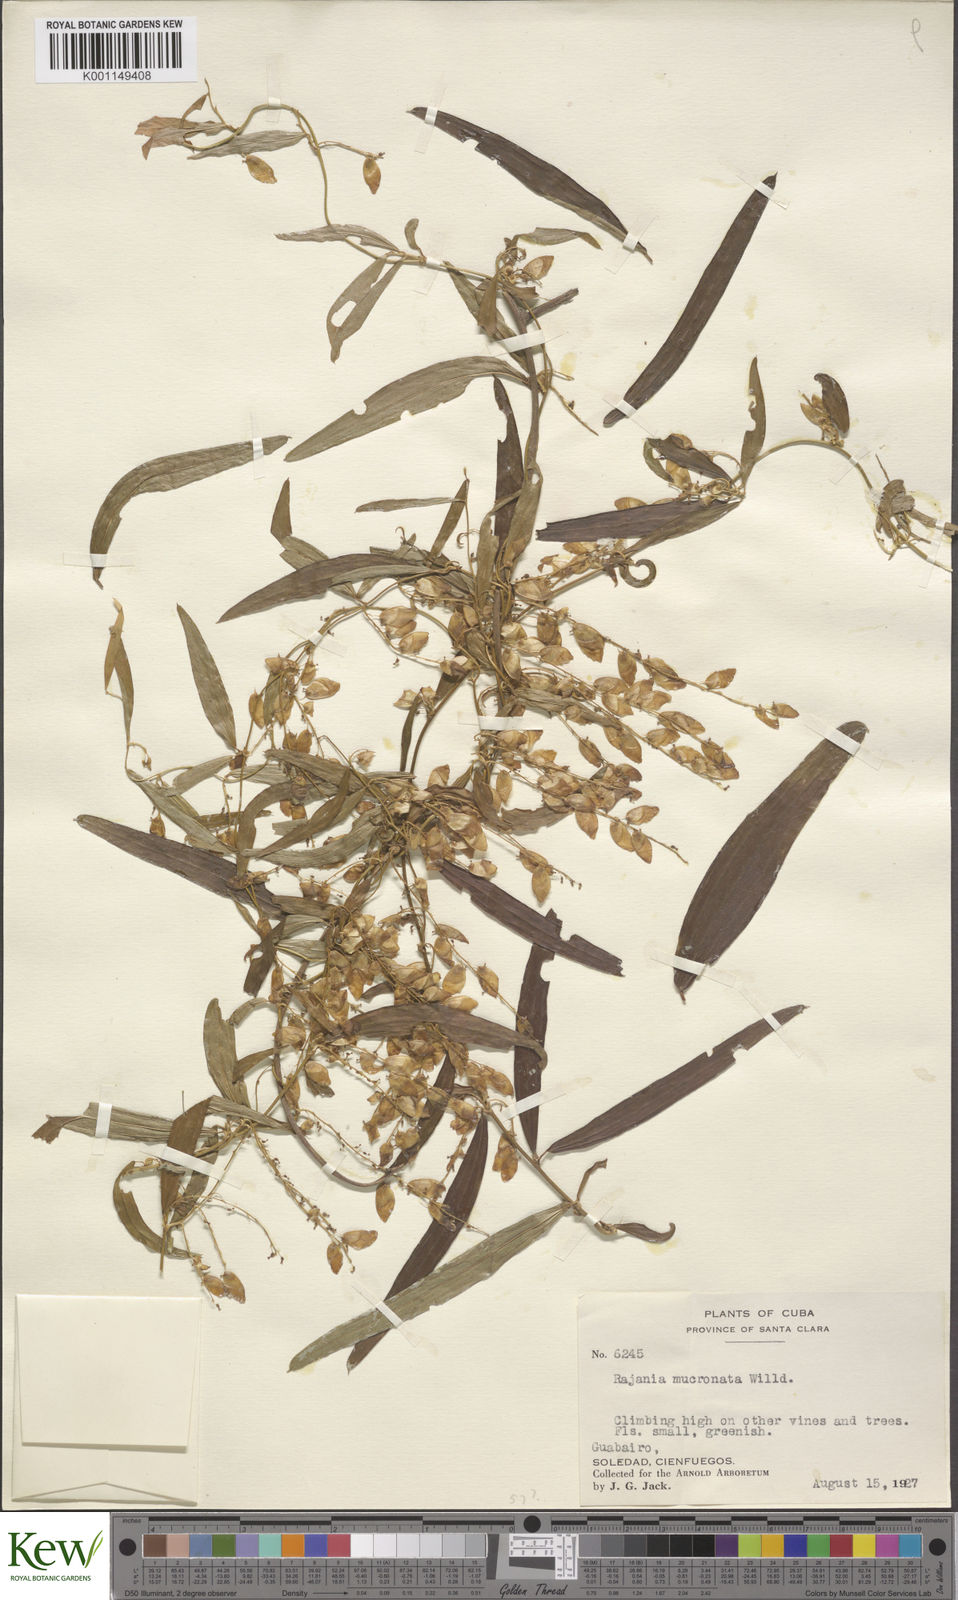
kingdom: Plantae
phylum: Tracheophyta
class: Liliopsida
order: Dioscoreales
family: Dioscoreaceae
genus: Dioscorea
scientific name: Dioscorea
